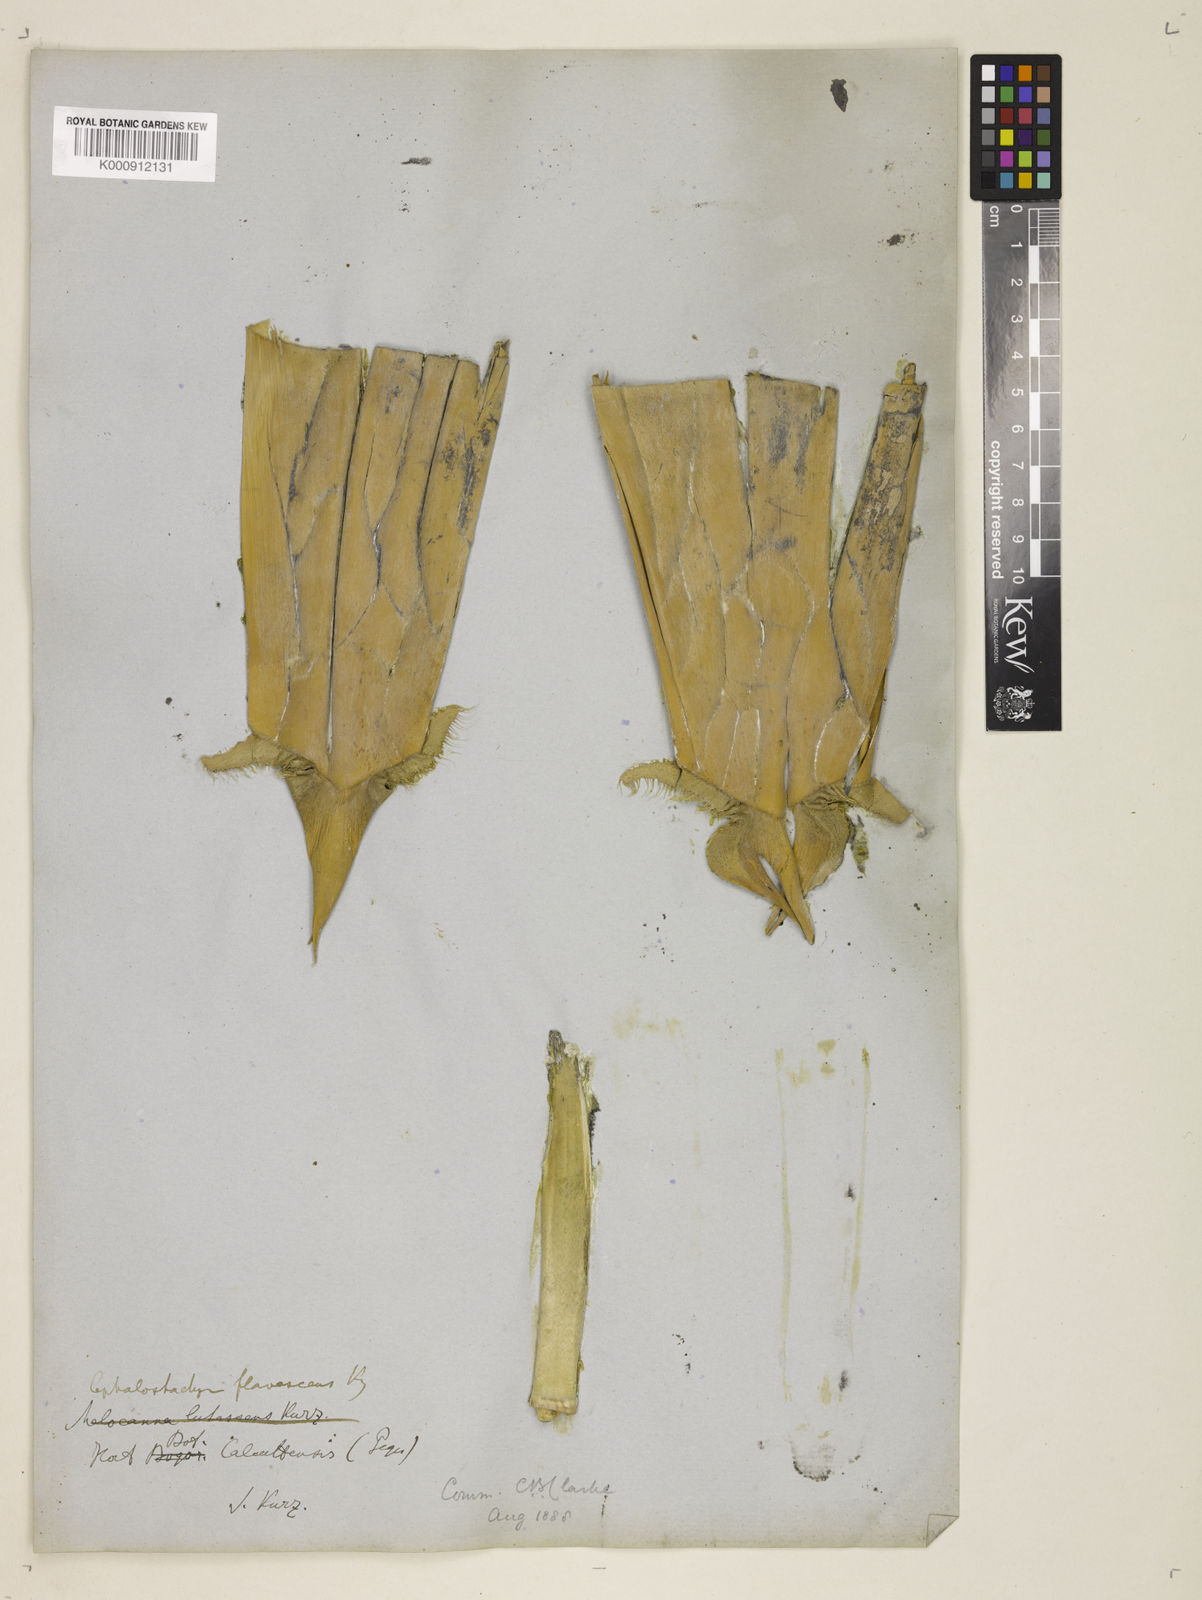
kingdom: Plantae
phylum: Tracheophyta
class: Liliopsida
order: Poales
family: Poaceae
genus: Cephalostachyum
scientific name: Cephalostachyum flavescens
